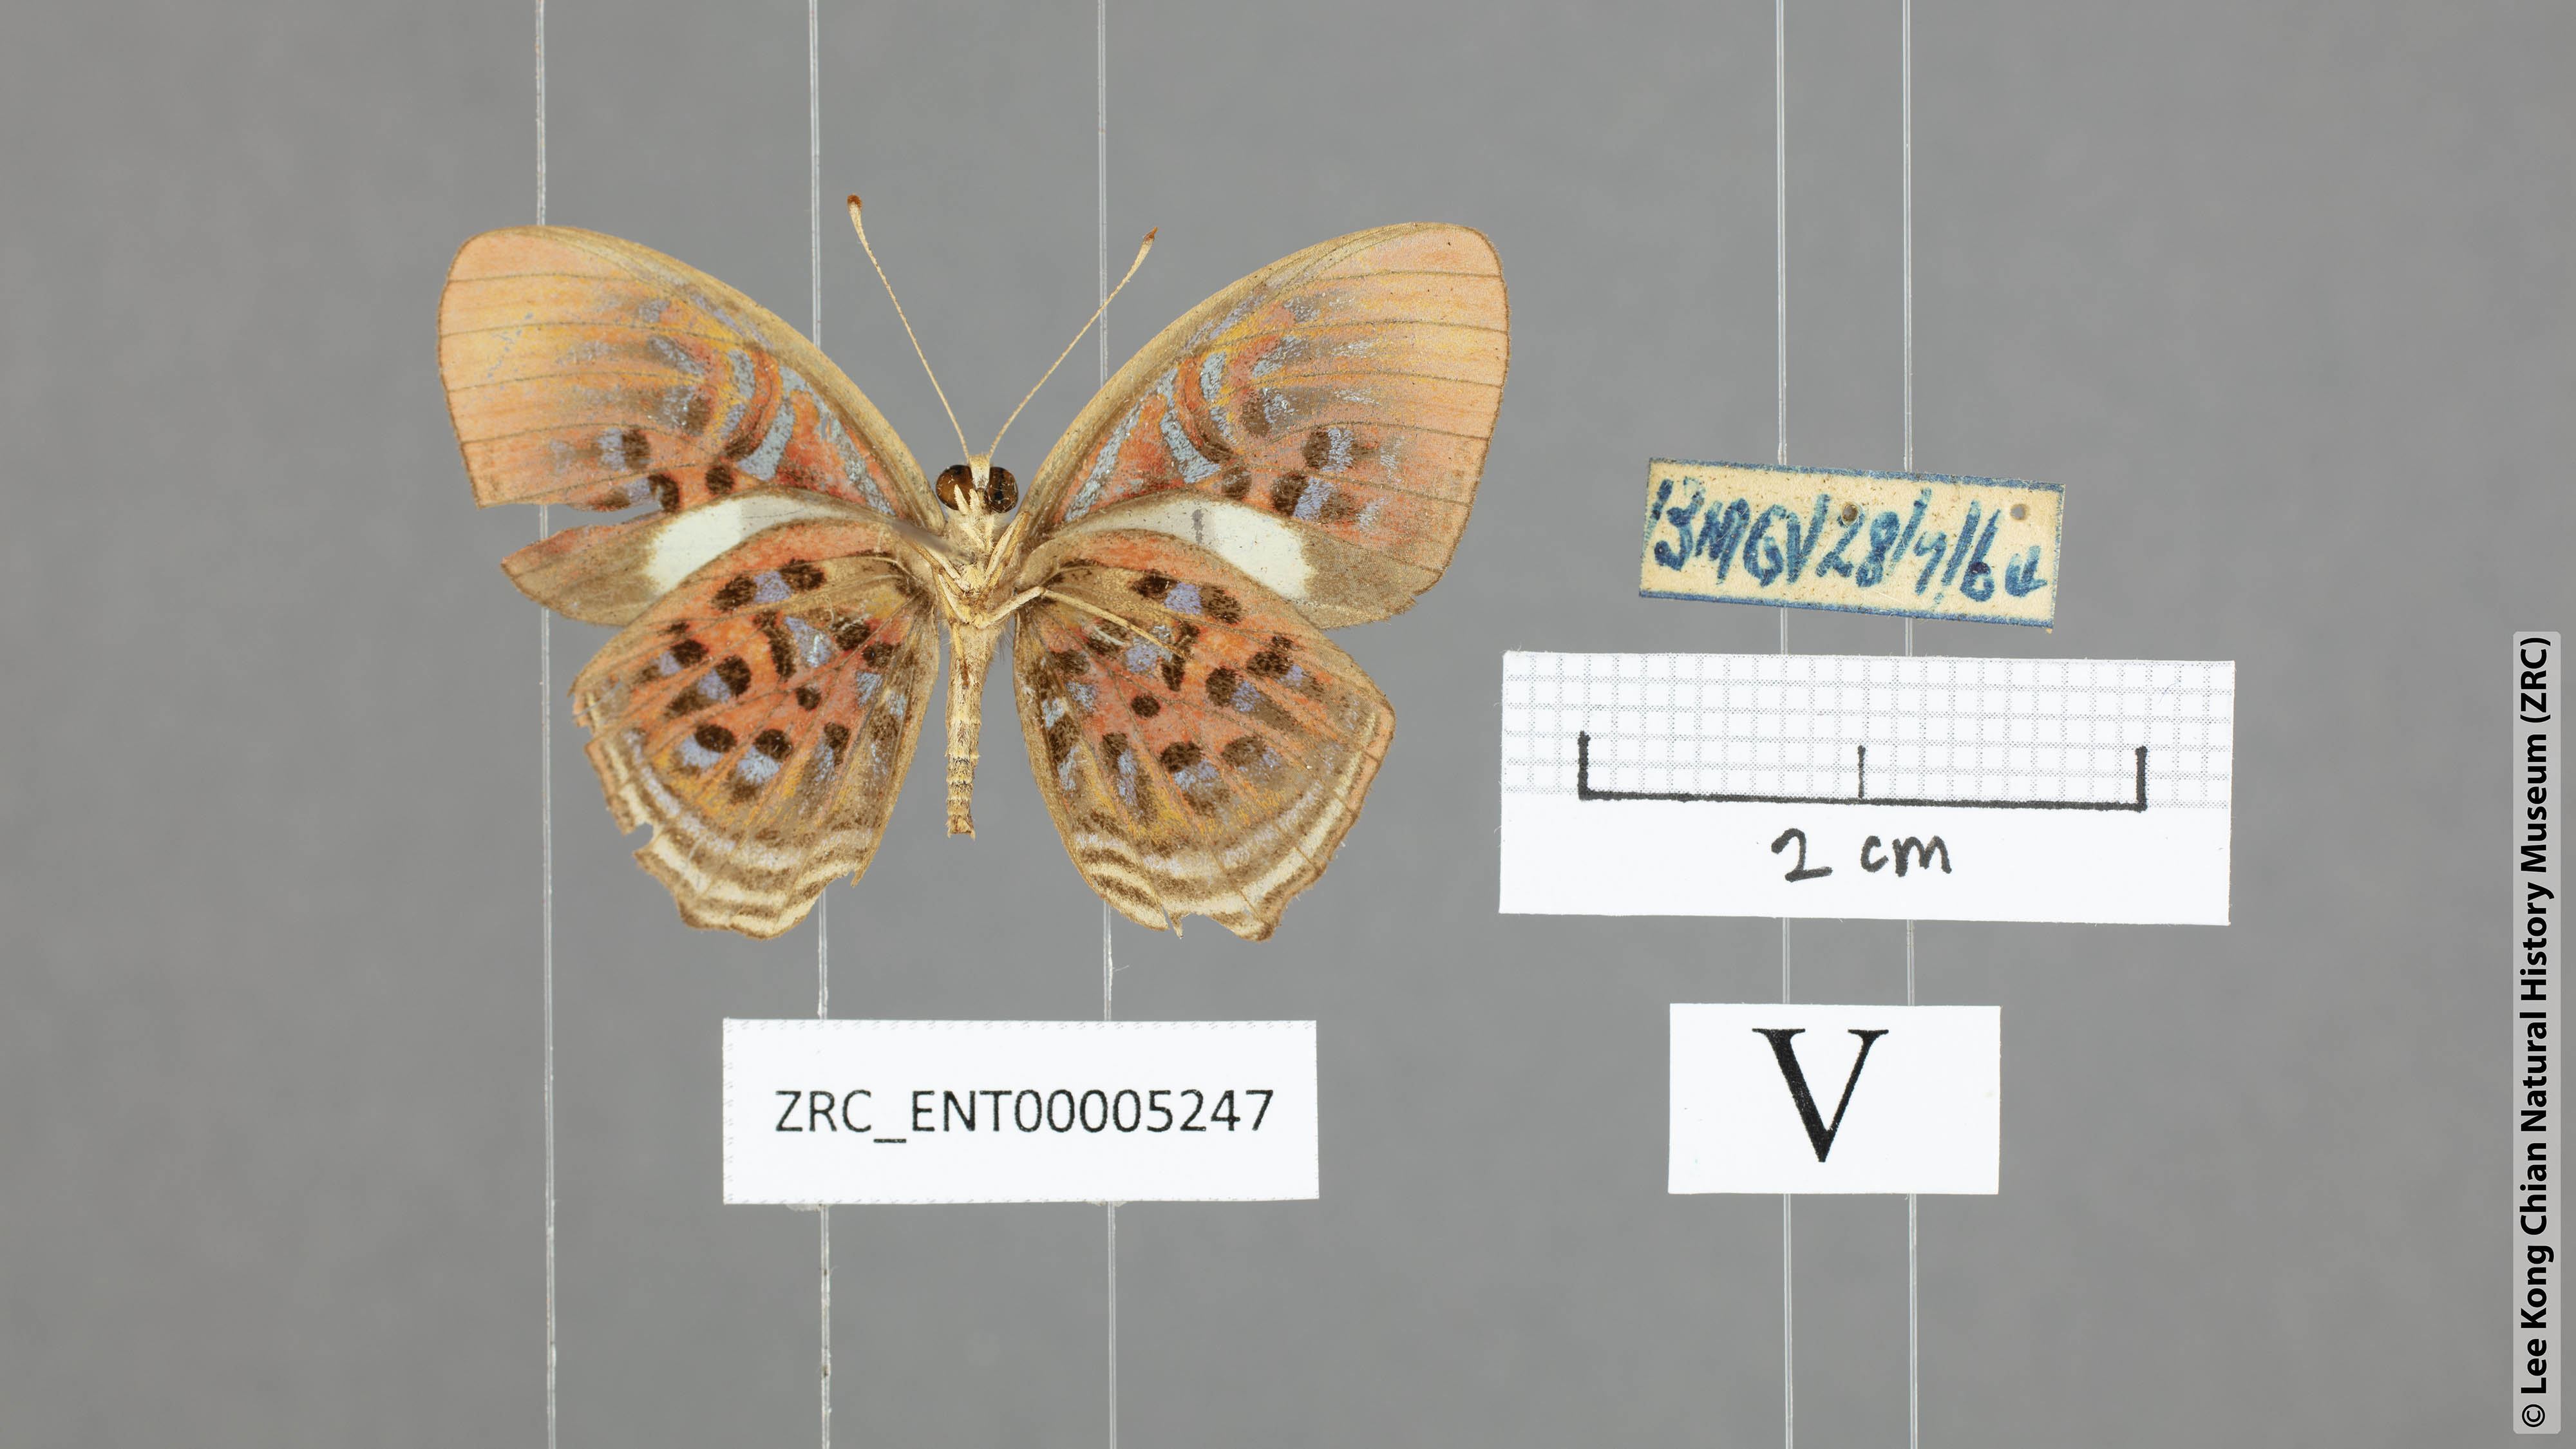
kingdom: Animalia
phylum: Arthropoda
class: Insecta
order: Lepidoptera
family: Riodinidae
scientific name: Riodinidae
